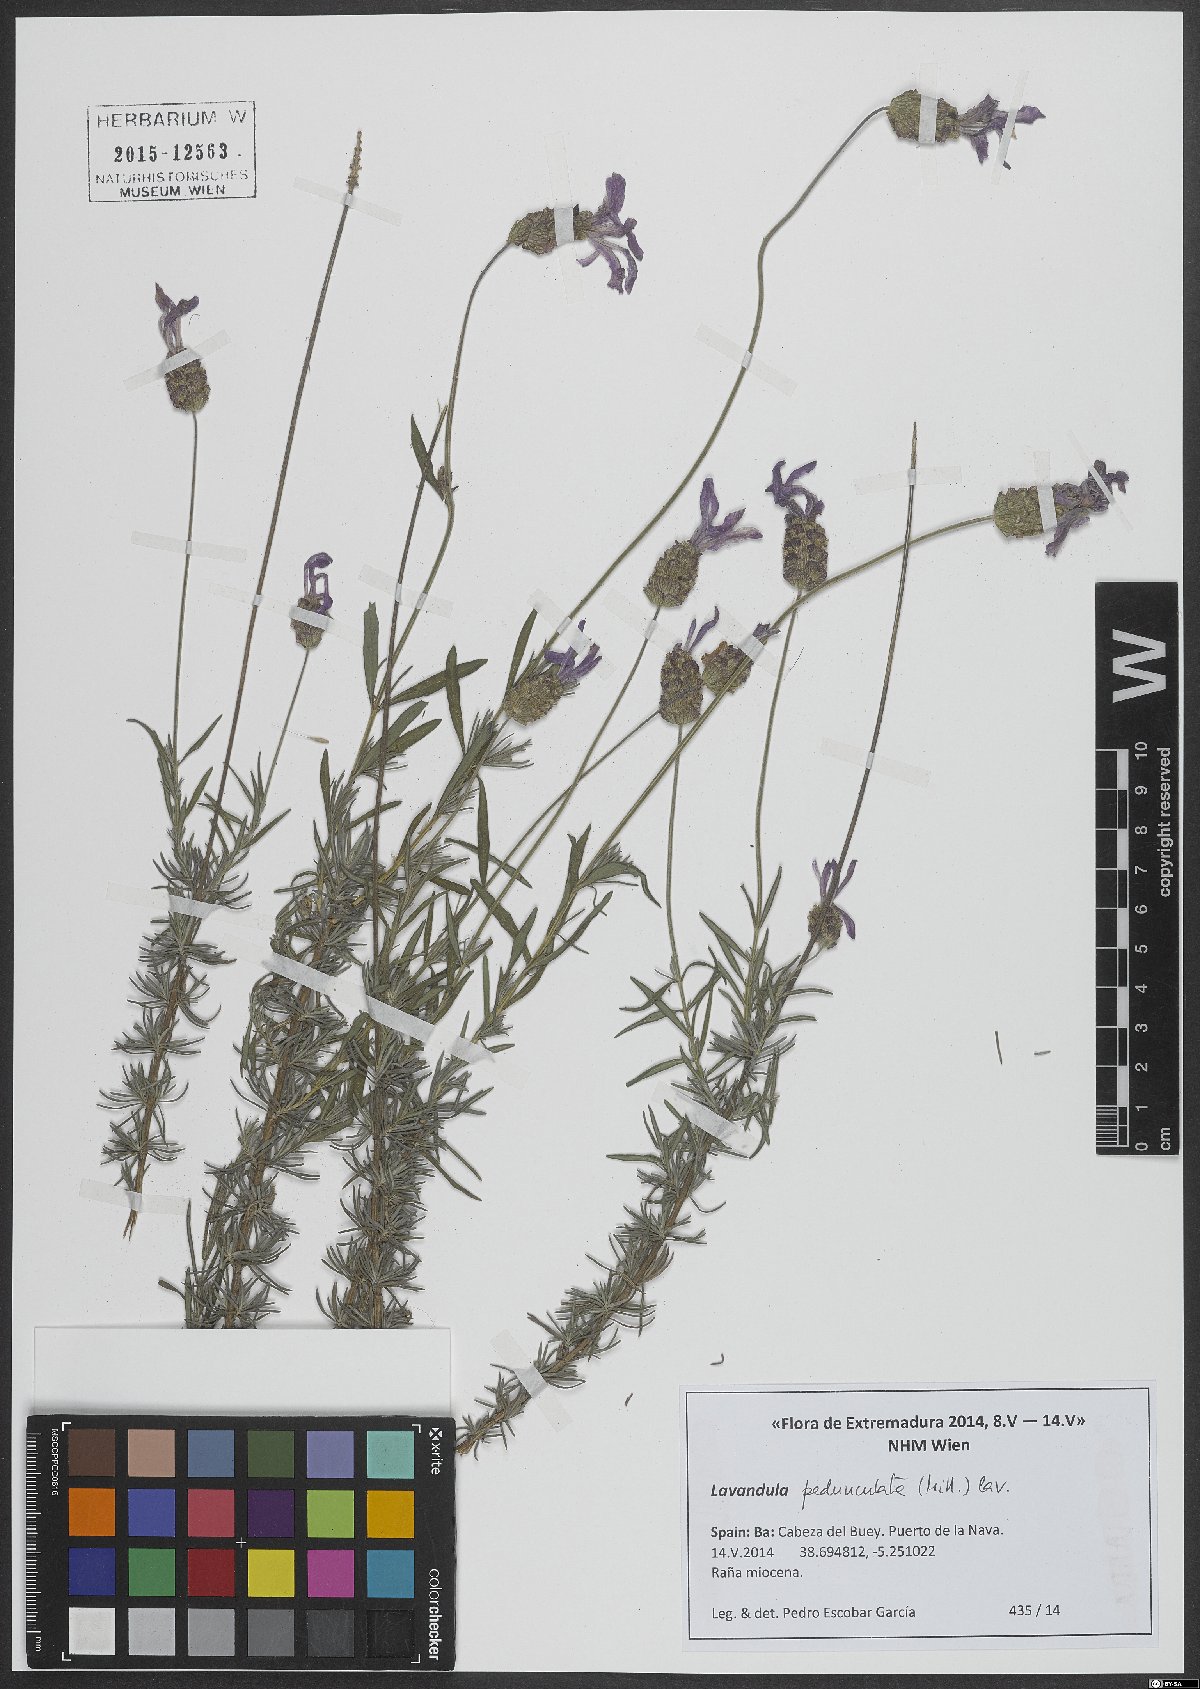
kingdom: Plantae
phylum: Tracheophyta
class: Magnoliopsida
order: Lamiales
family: Lamiaceae
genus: Lavandula
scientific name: Lavandula pedunculata
